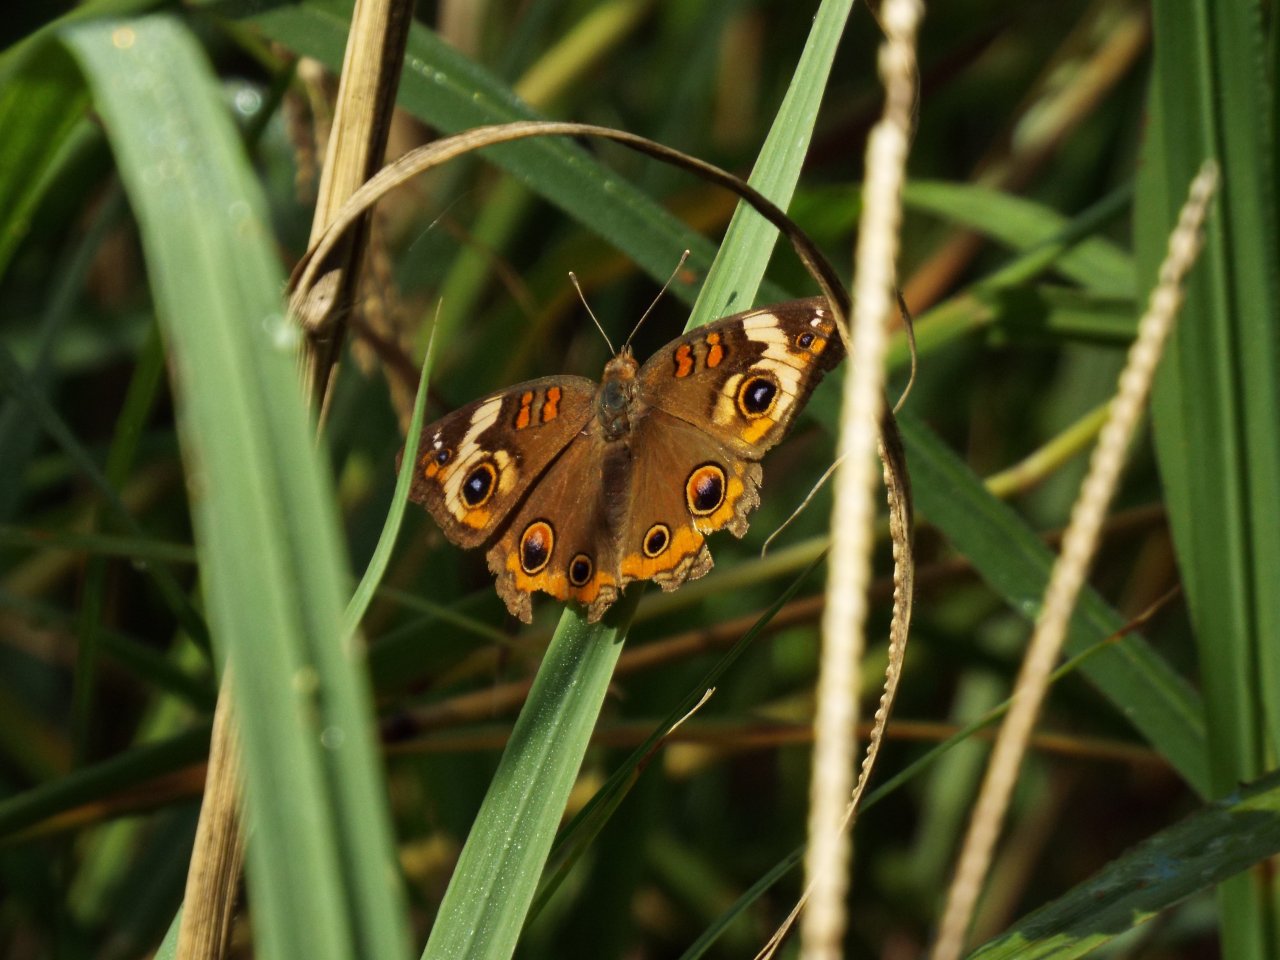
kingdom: Animalia
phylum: Arthropoda
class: Insecta
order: Lepidoptera
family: Nymphalidae
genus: Junonia
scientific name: Junonia coenia
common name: Common Buckeye
